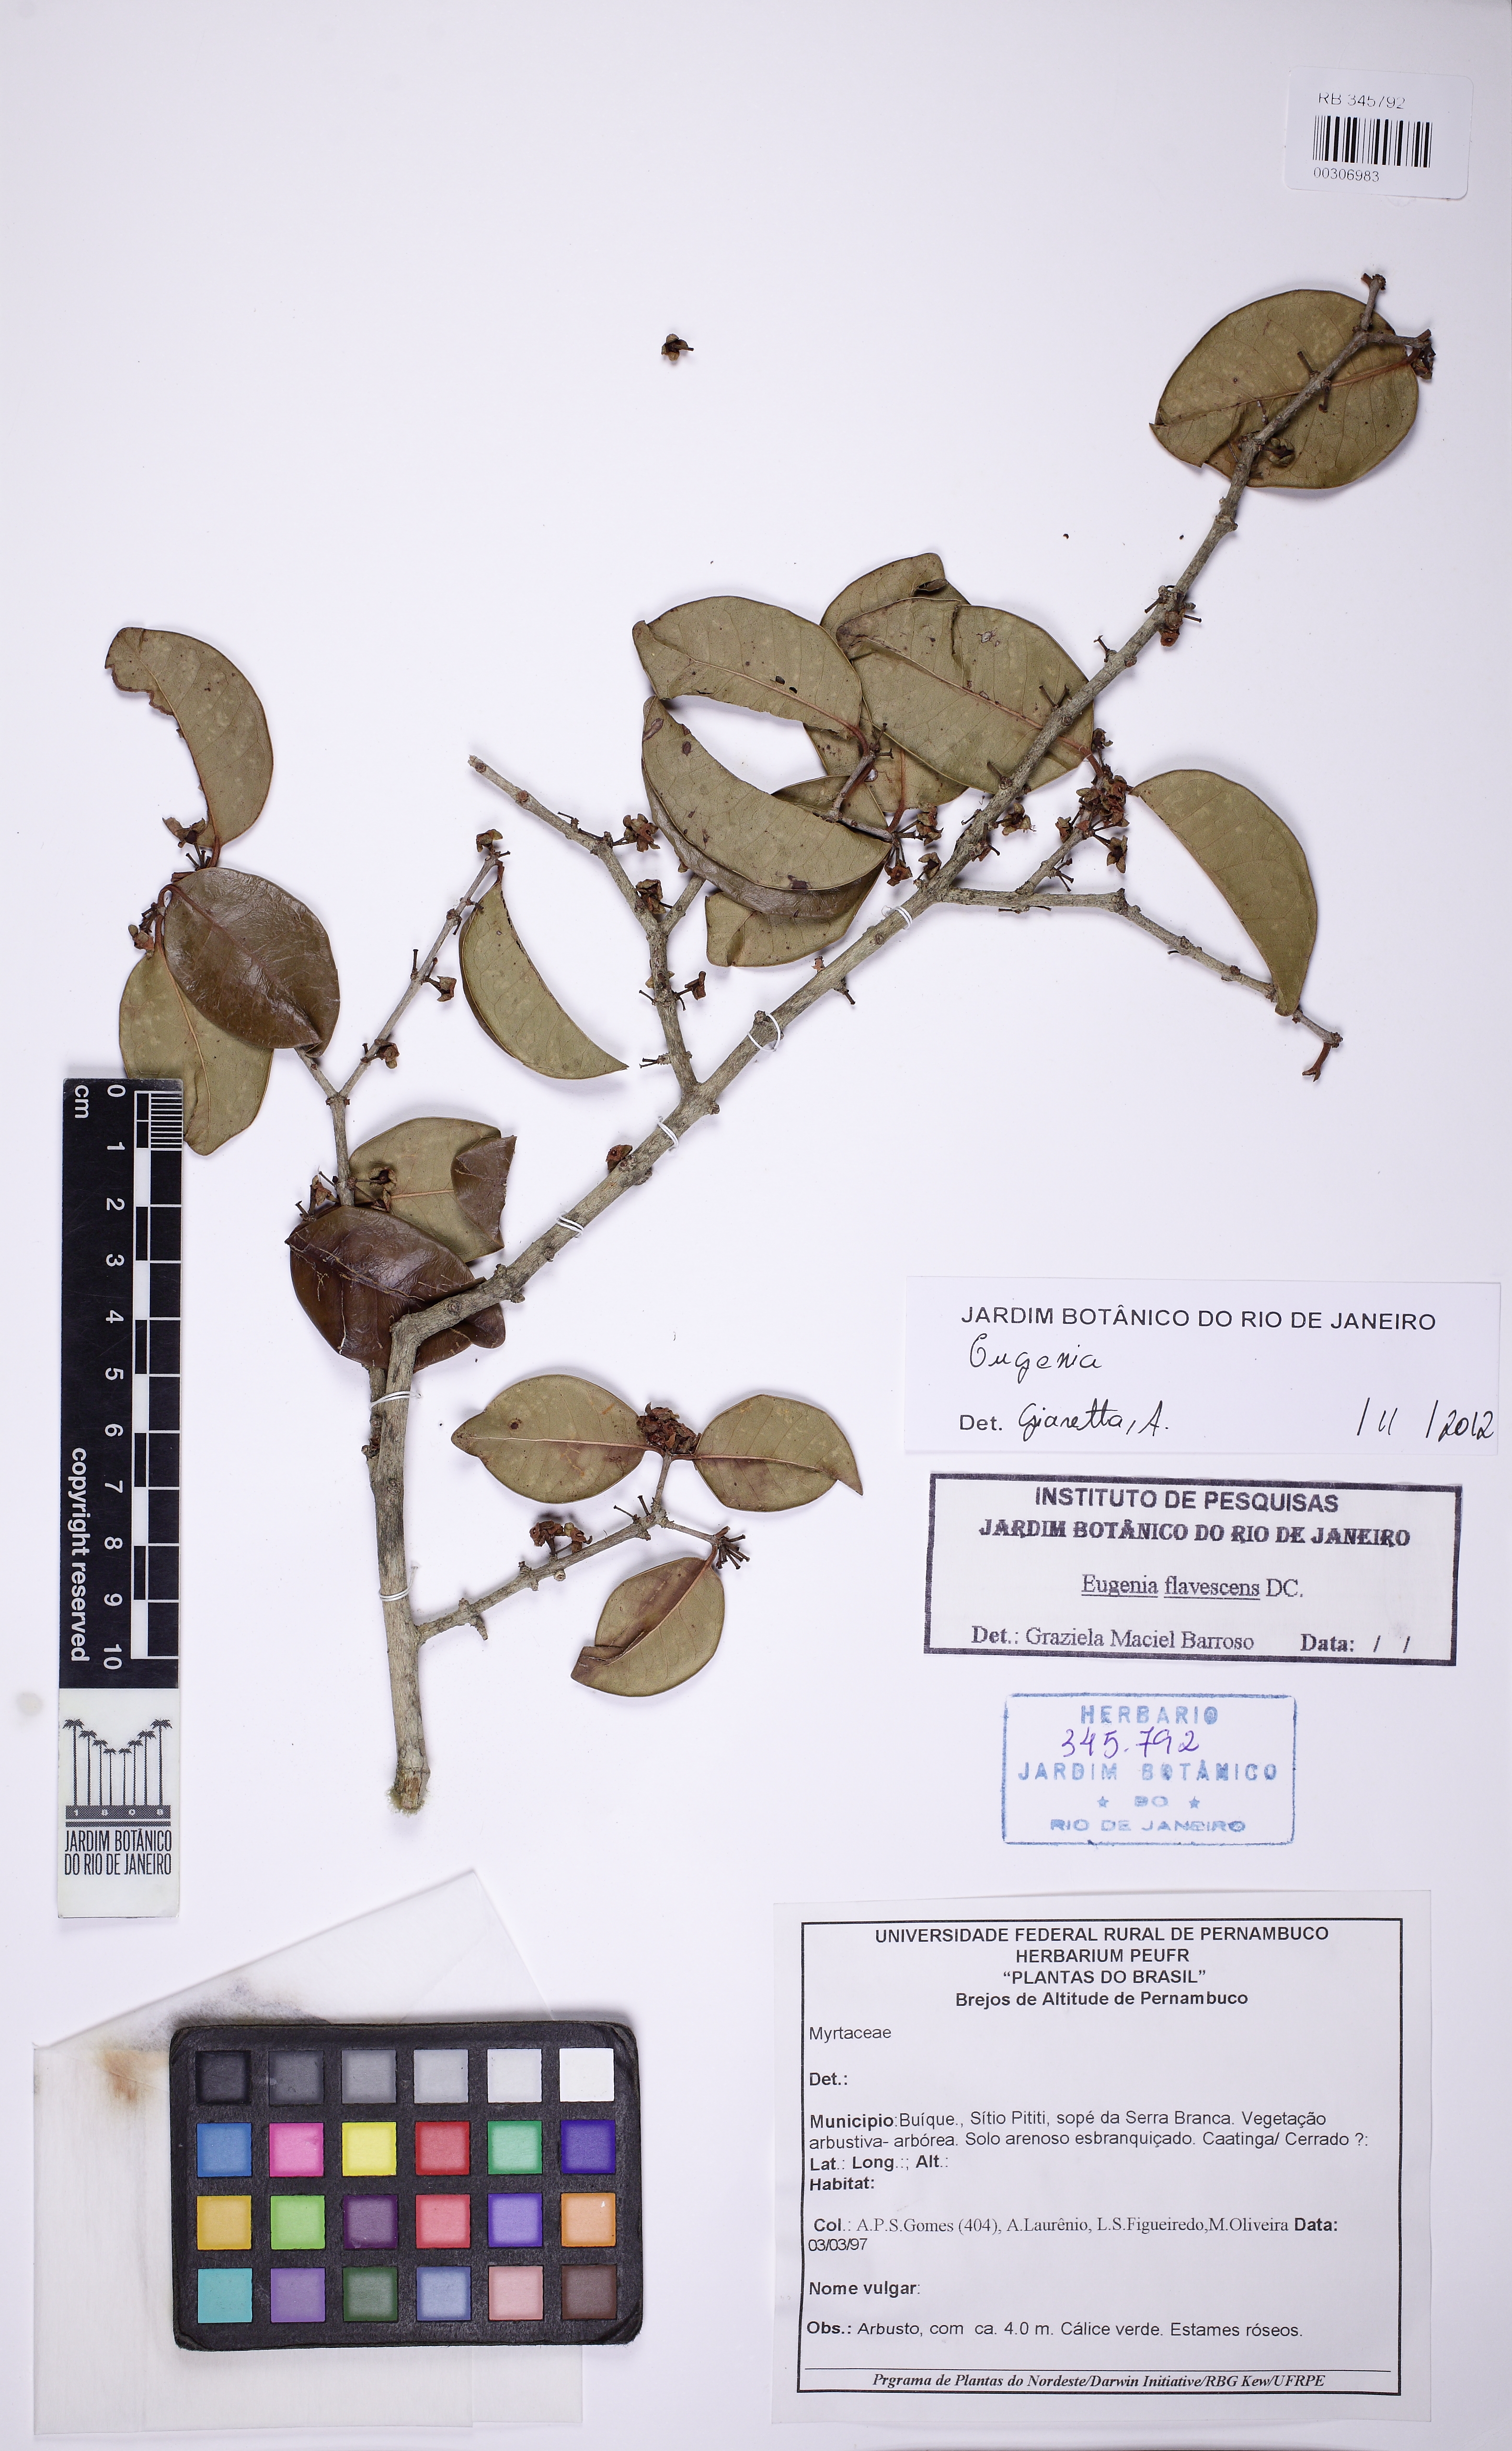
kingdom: Plantae
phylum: Tracheophyta
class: Magnoliopsida
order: Myrtales
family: Myrtaceae
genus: Eugenia
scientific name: Eugenia
